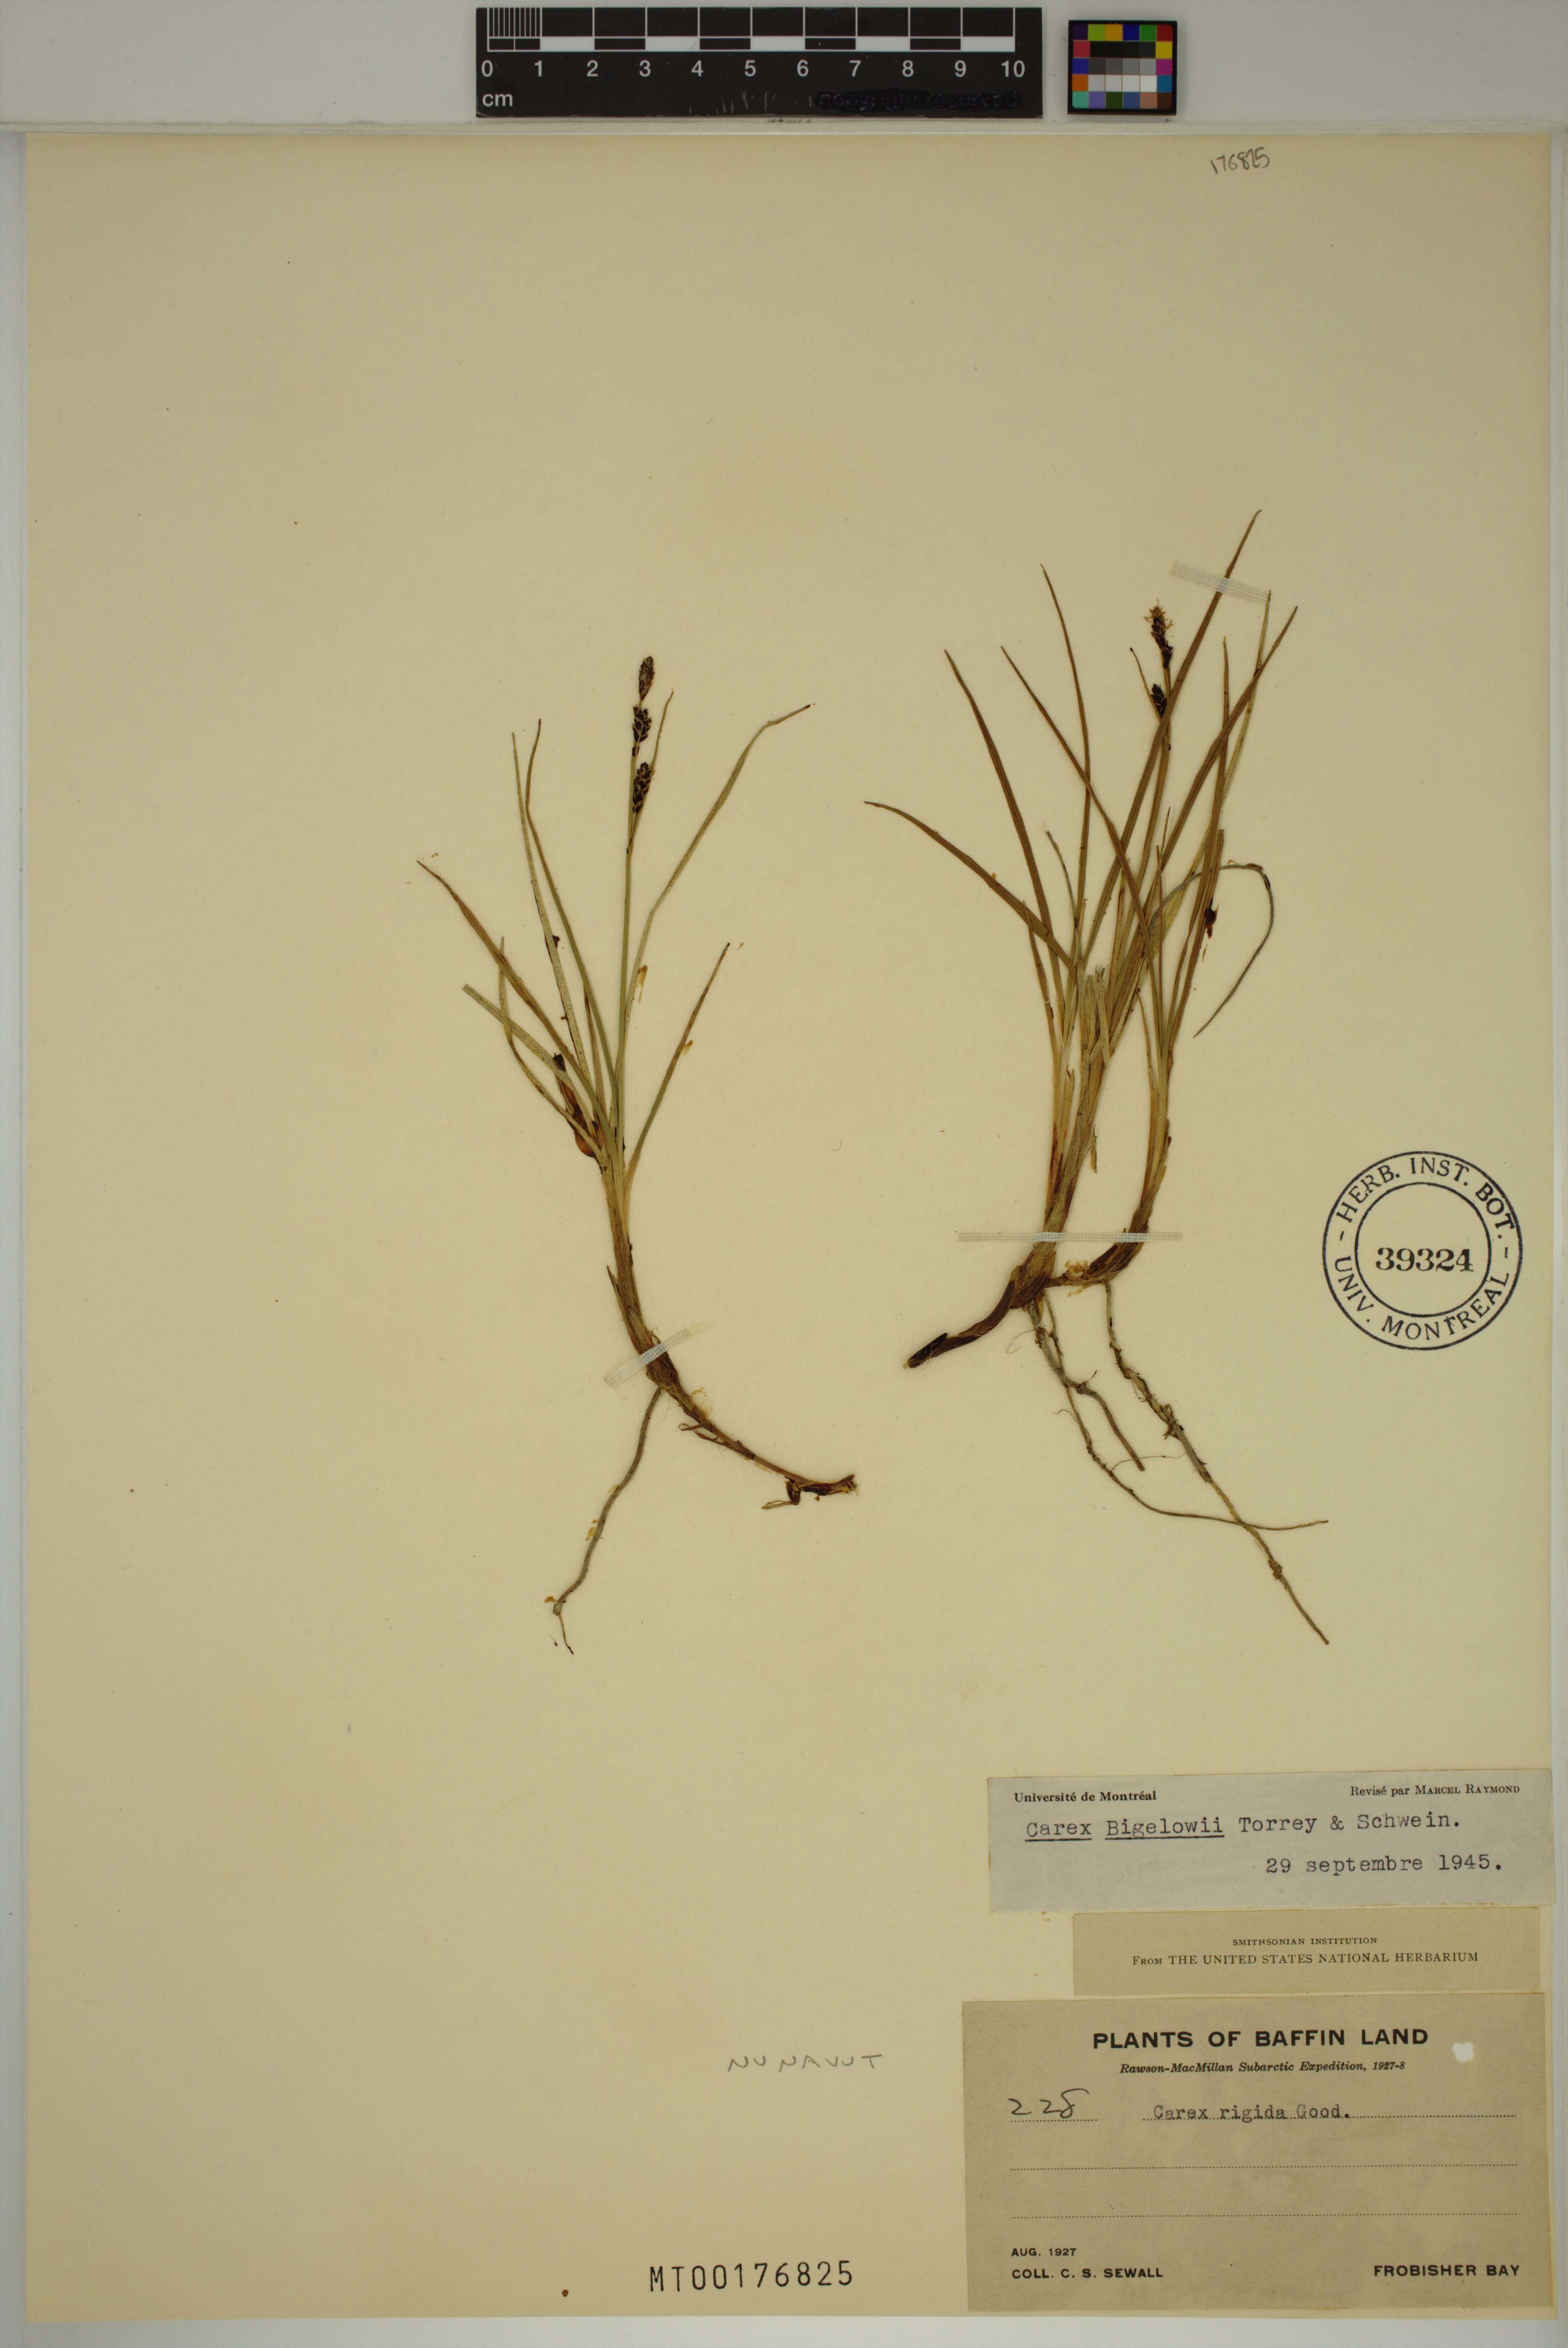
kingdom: Plantae
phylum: Tracheophyta
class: Liliopsida
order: Poales
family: Cyperaceae
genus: Carex
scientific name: Carex bigelowii
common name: Stiff sedge
